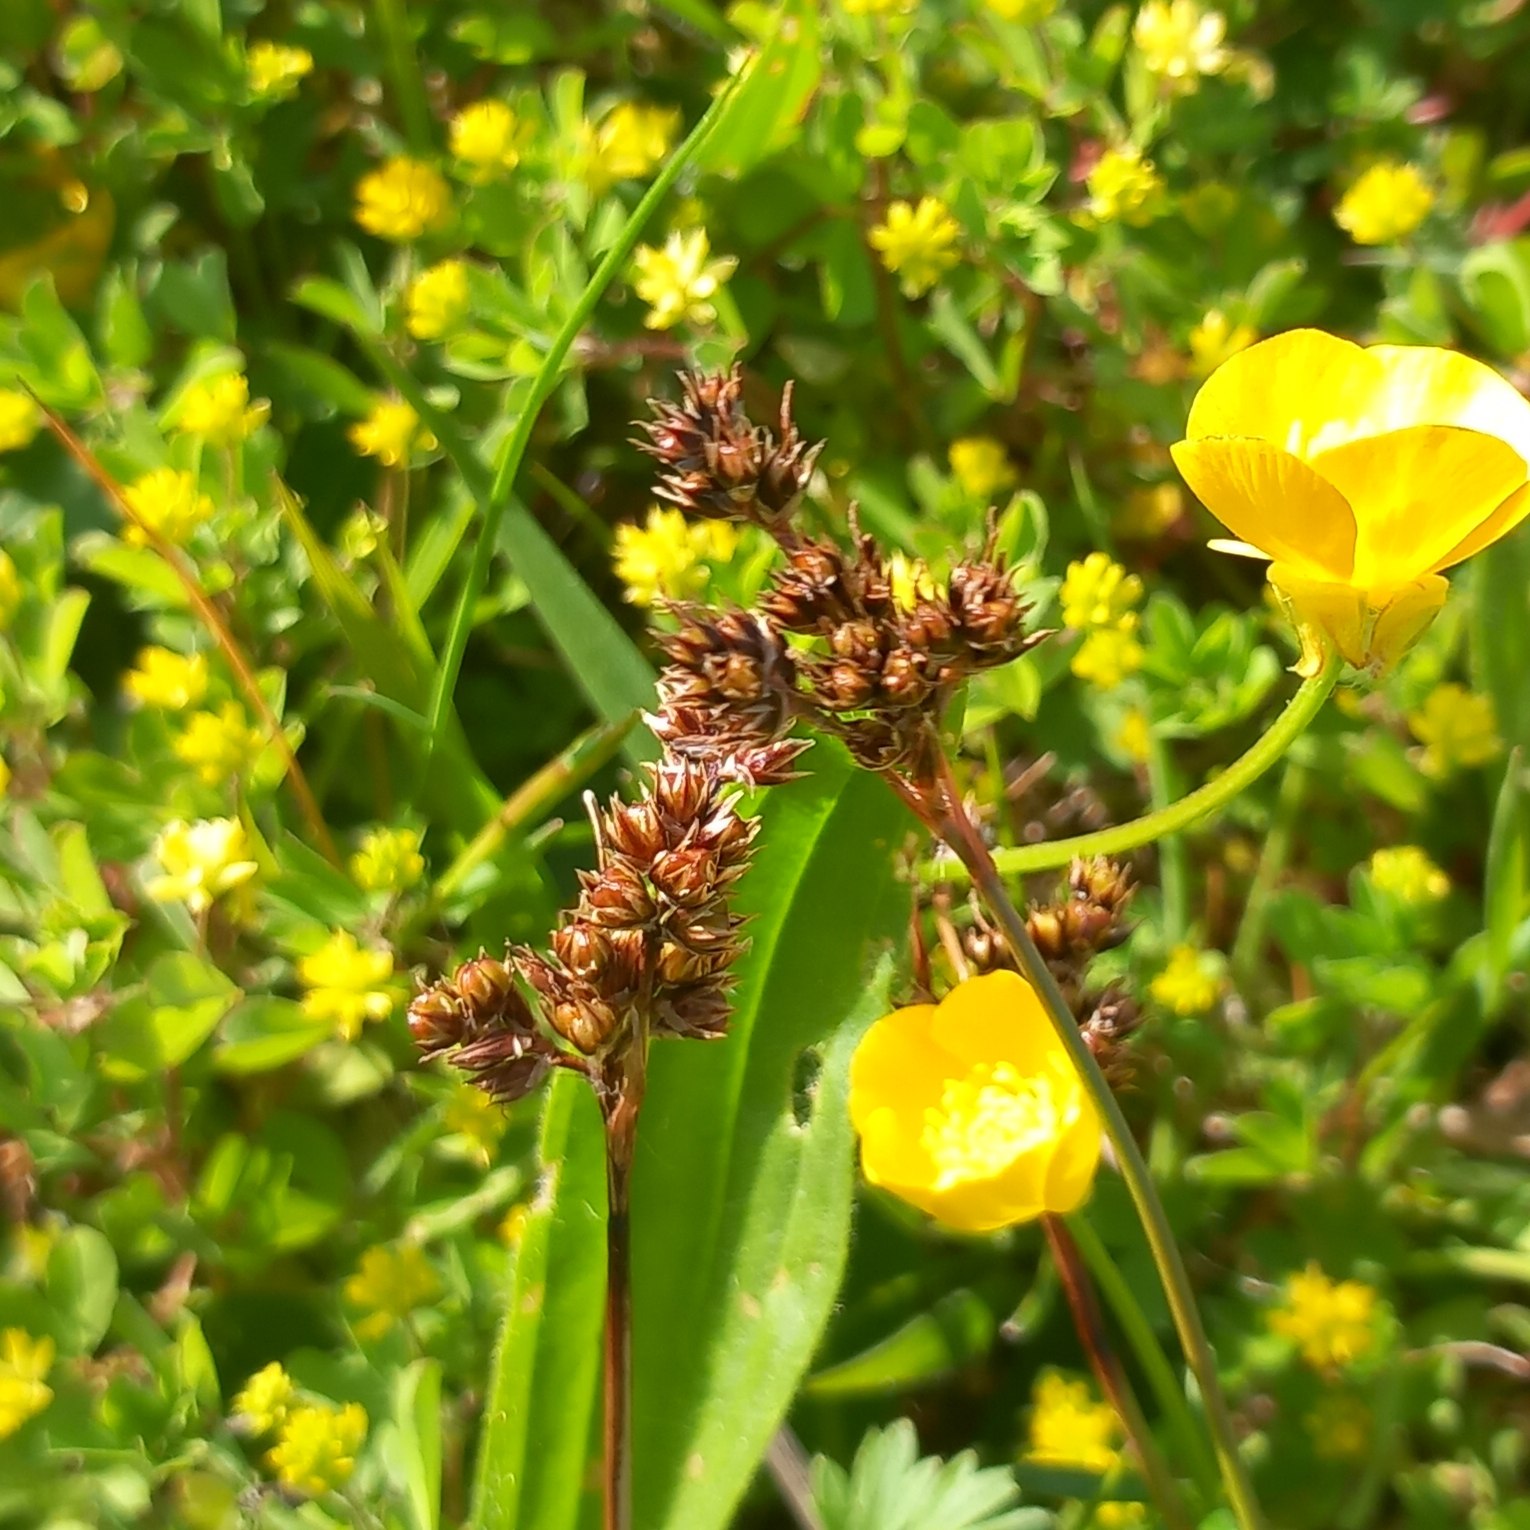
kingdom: Plantae
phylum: Tracheophyta
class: Liliopsida
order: Poales
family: Juncaceae
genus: Luzula
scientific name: Luzula campestris
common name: Mark-frytle
